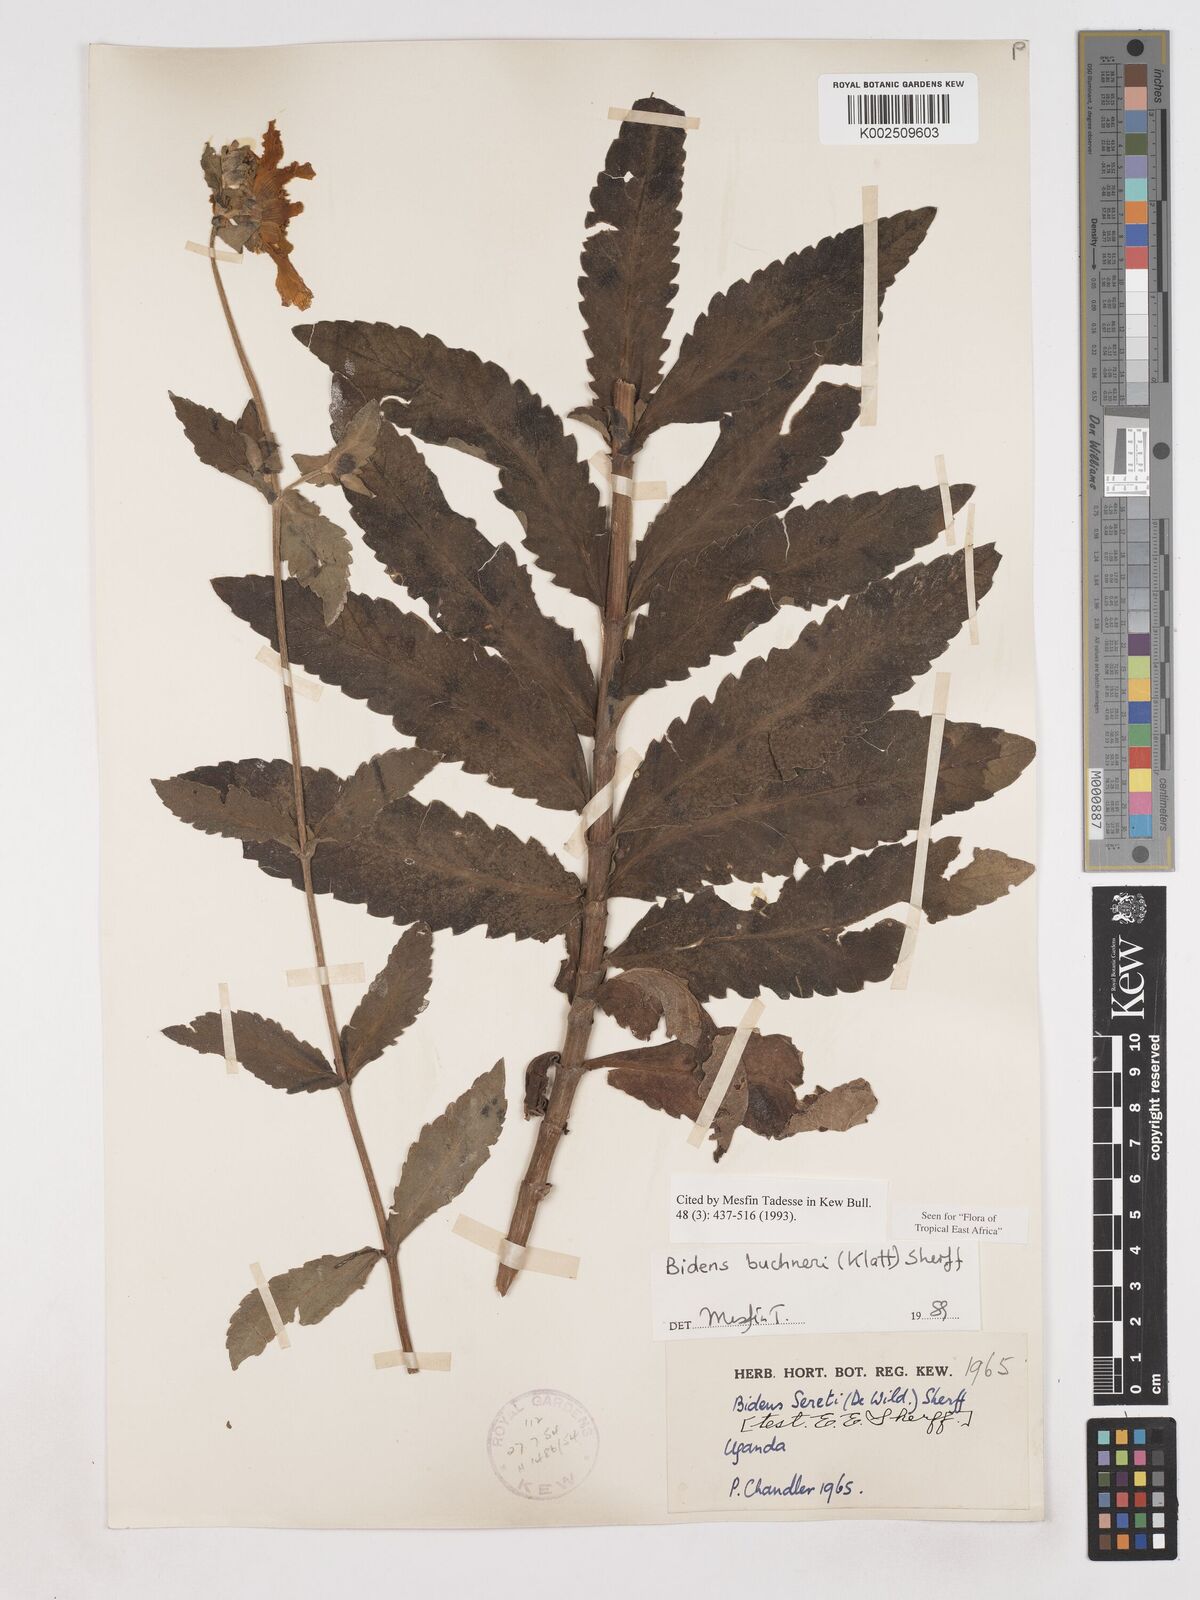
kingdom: Plantae
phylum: Tracheophyta
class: Magnoliopsida
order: Asterales
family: Asteraceae
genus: Bidens
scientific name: Bidens buchneri
